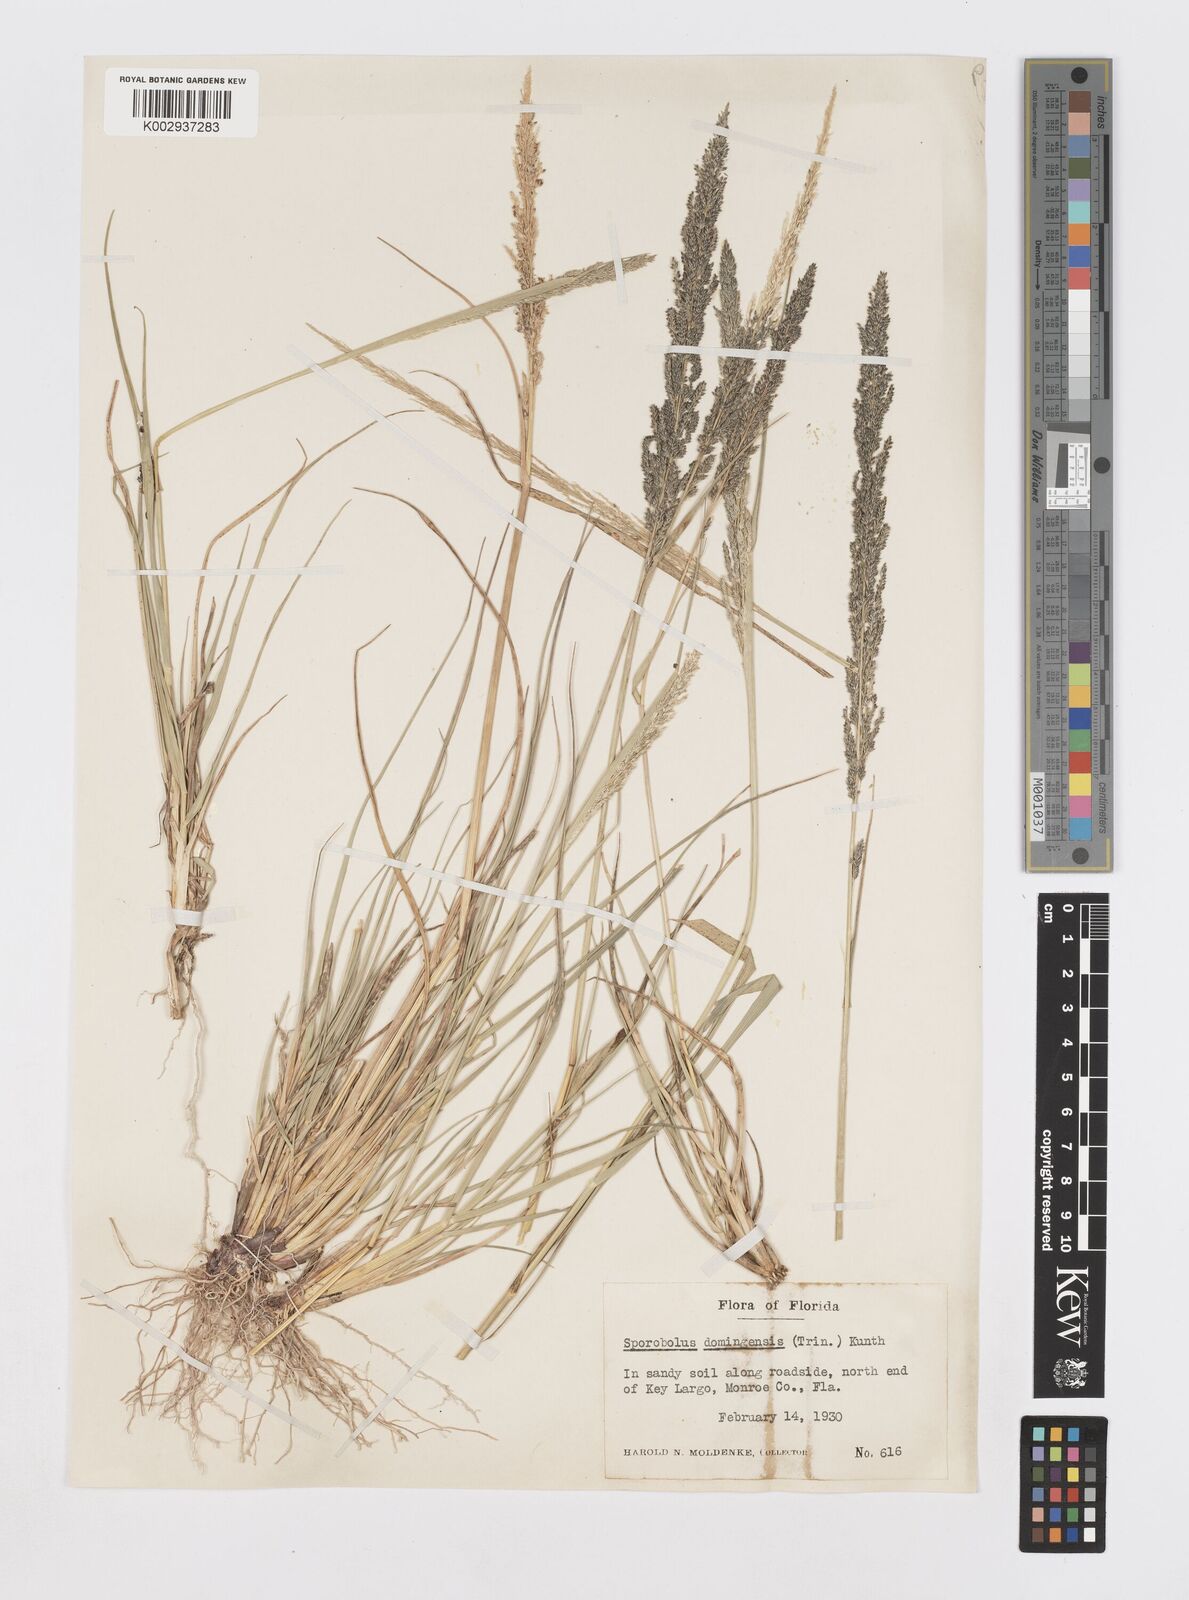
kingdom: Plantae
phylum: Tracheophyta
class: Liliopsida
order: Poales
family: Poaceae
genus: Sporobolus
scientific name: Sporobolus domingensis
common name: Coral dropseed
